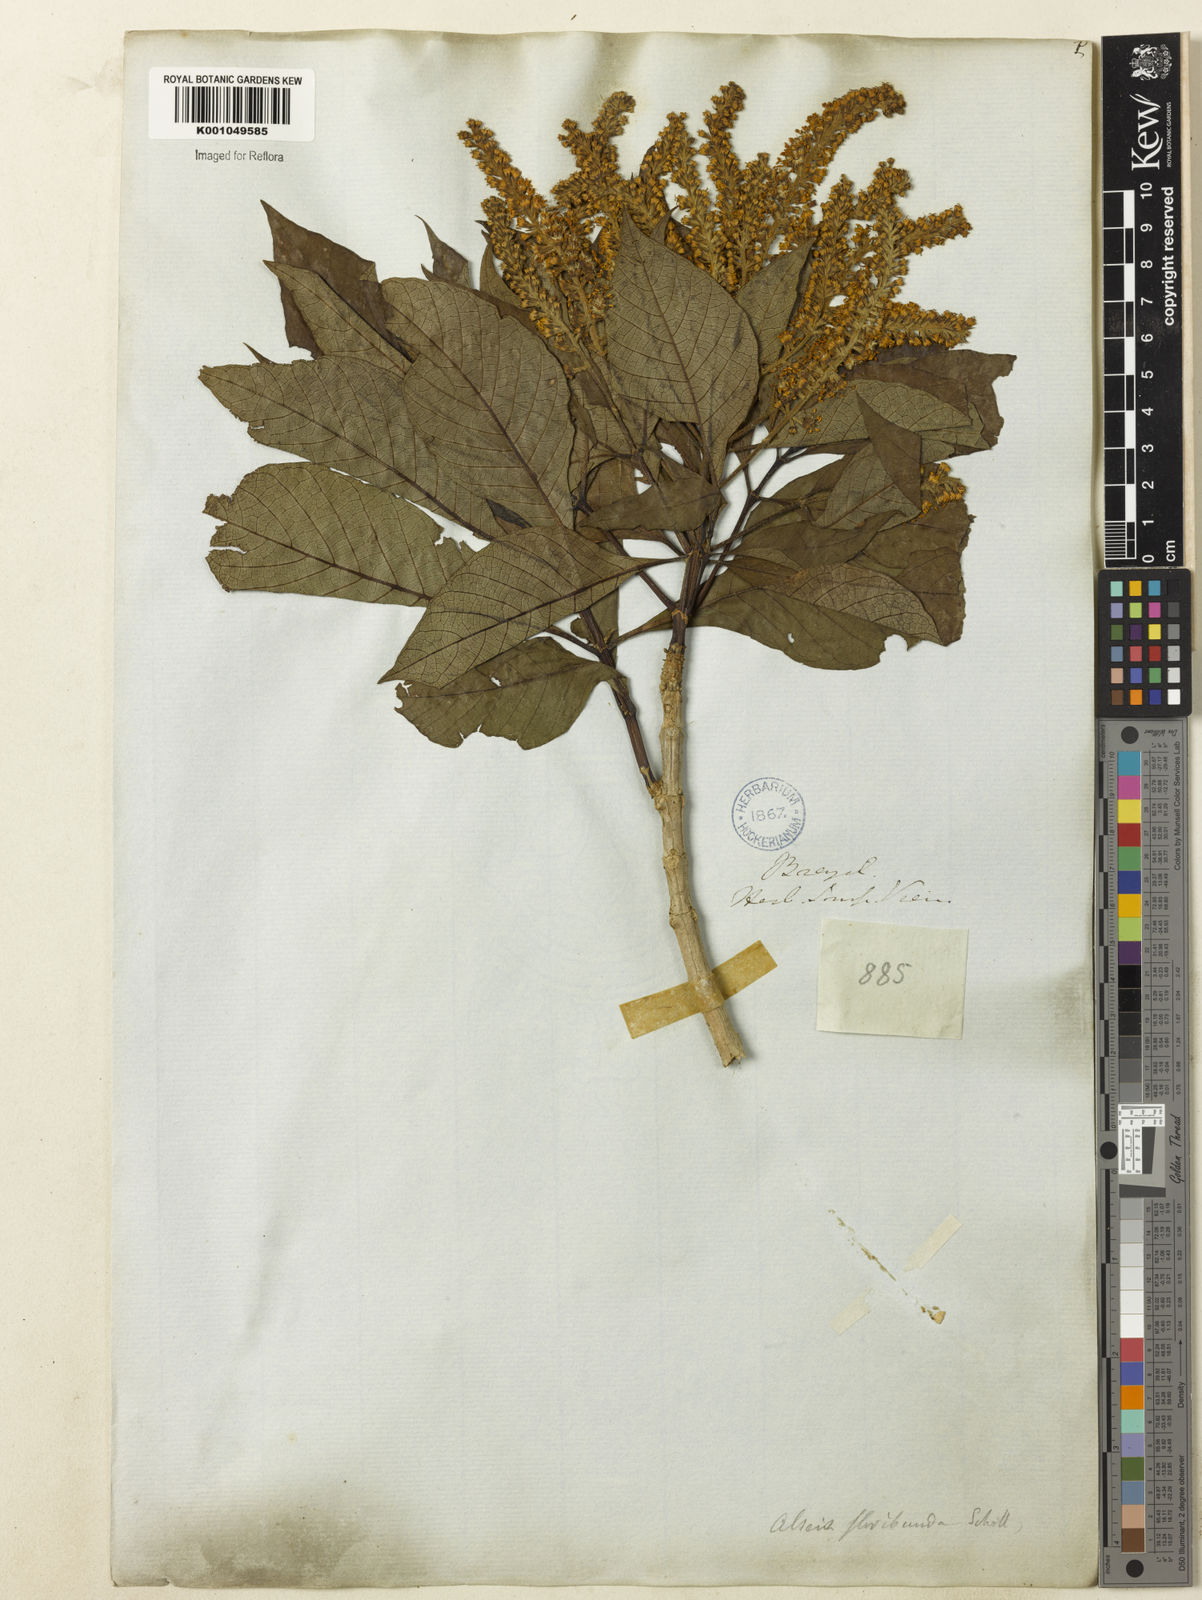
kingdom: Plantae
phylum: Tracheophyta
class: Magnoliopsida
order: Gentianales
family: Rubiaceae
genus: Alseis
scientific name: Alseis floribunda
